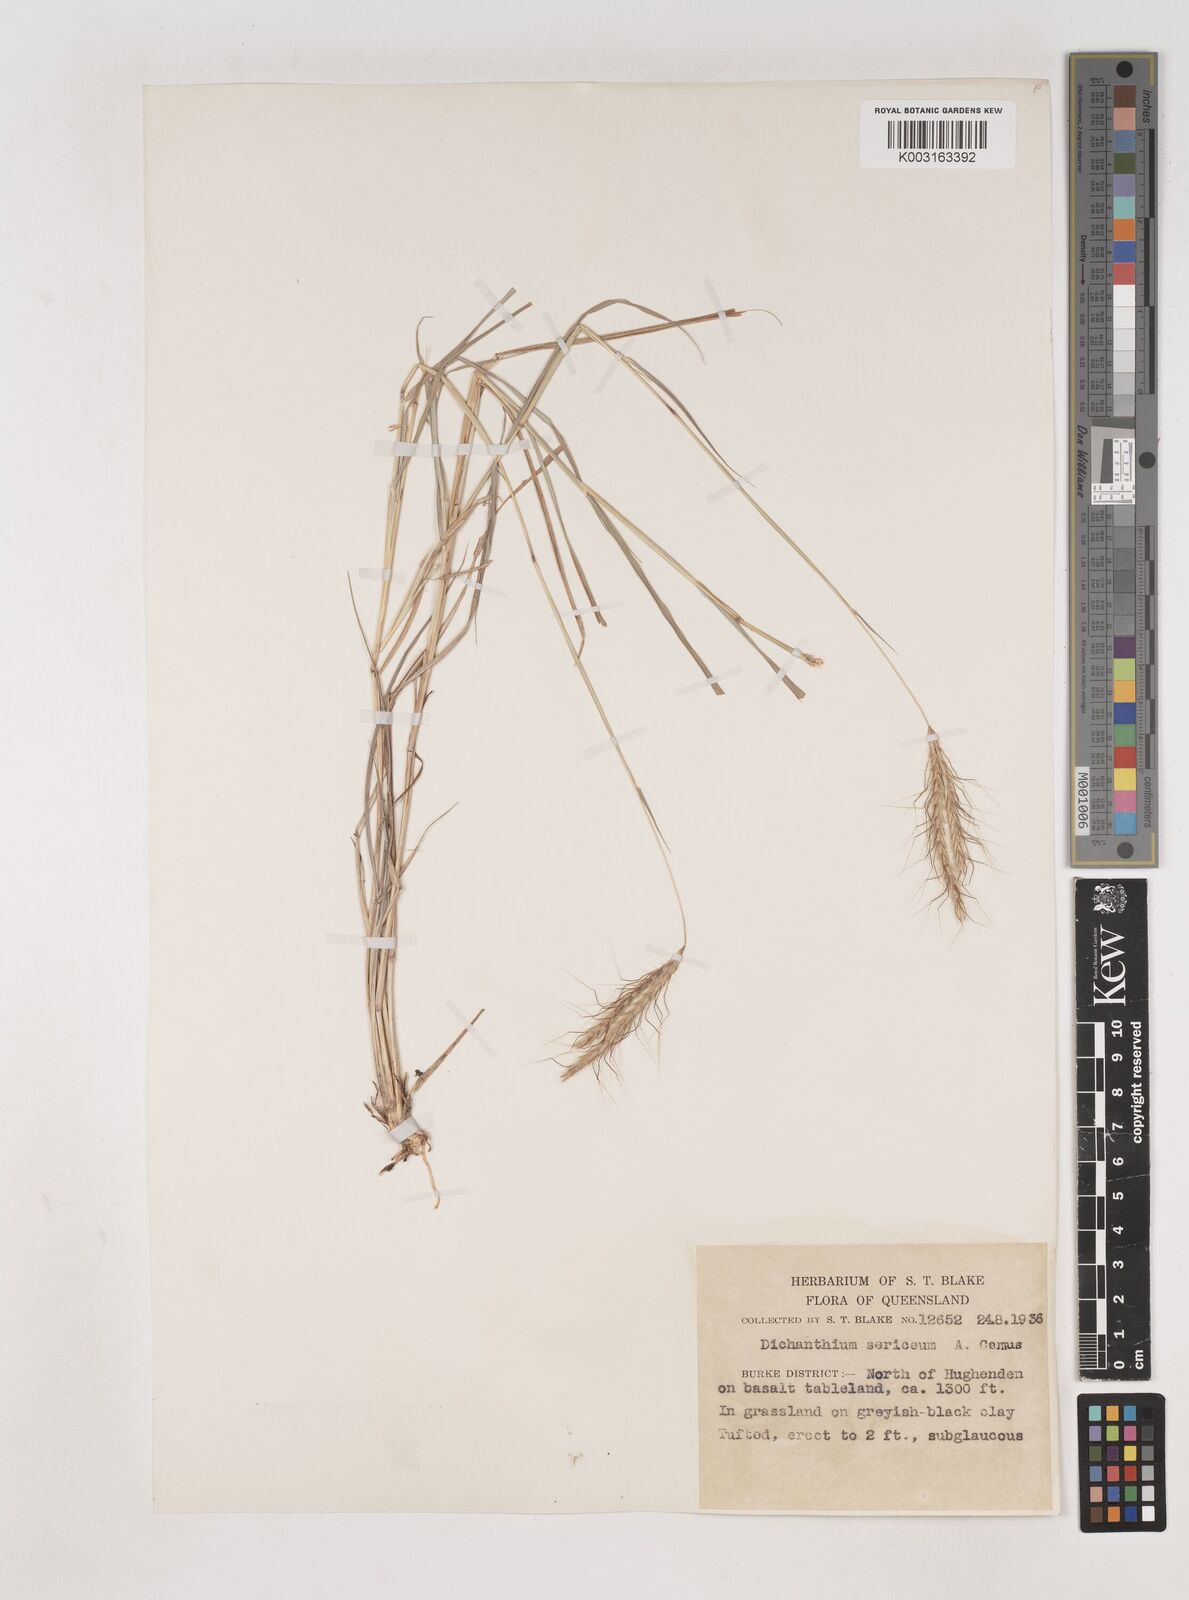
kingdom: Plantae
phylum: Tracheophyta
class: Liliopsida
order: Poales
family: Poaceae
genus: Dichanthium
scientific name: Dichanthium sericeum
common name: Silky bluestem
